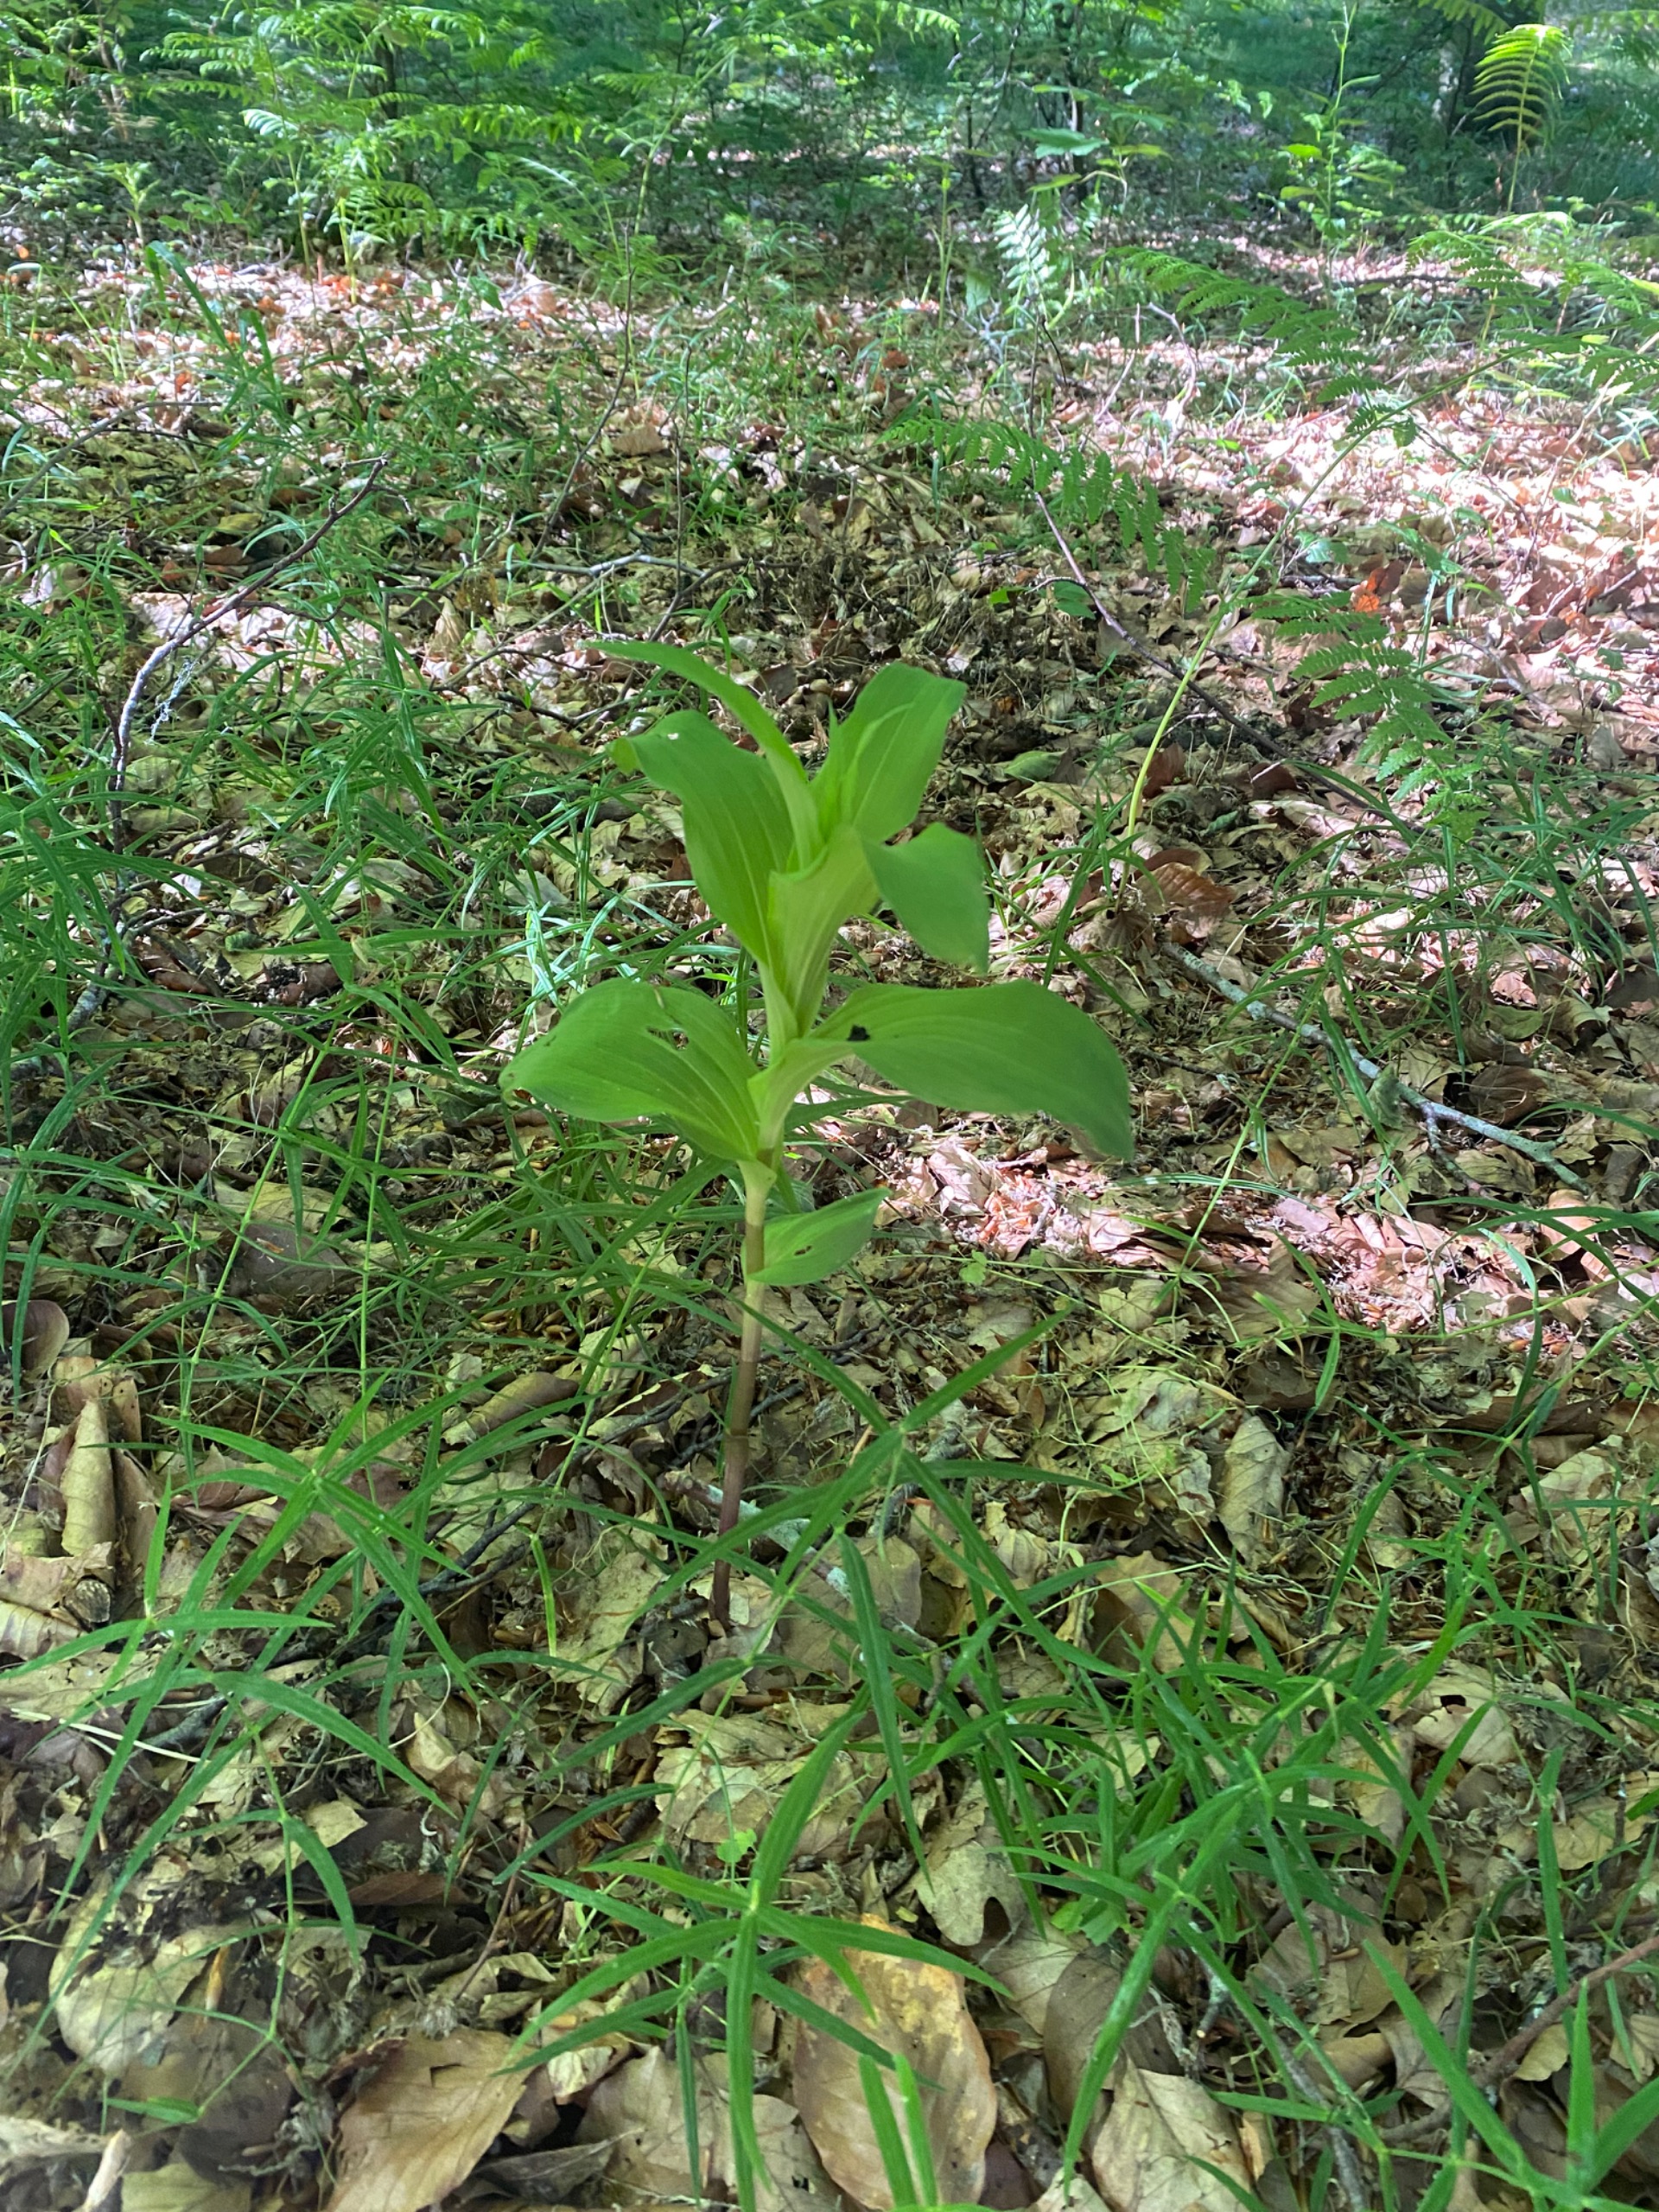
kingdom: Plantae
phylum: Tracheophyta
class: Liliopsida
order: Asparagales
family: Orchidaceae
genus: Epipactis
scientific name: Epipactis helleborine
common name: Skov-hullæbe
